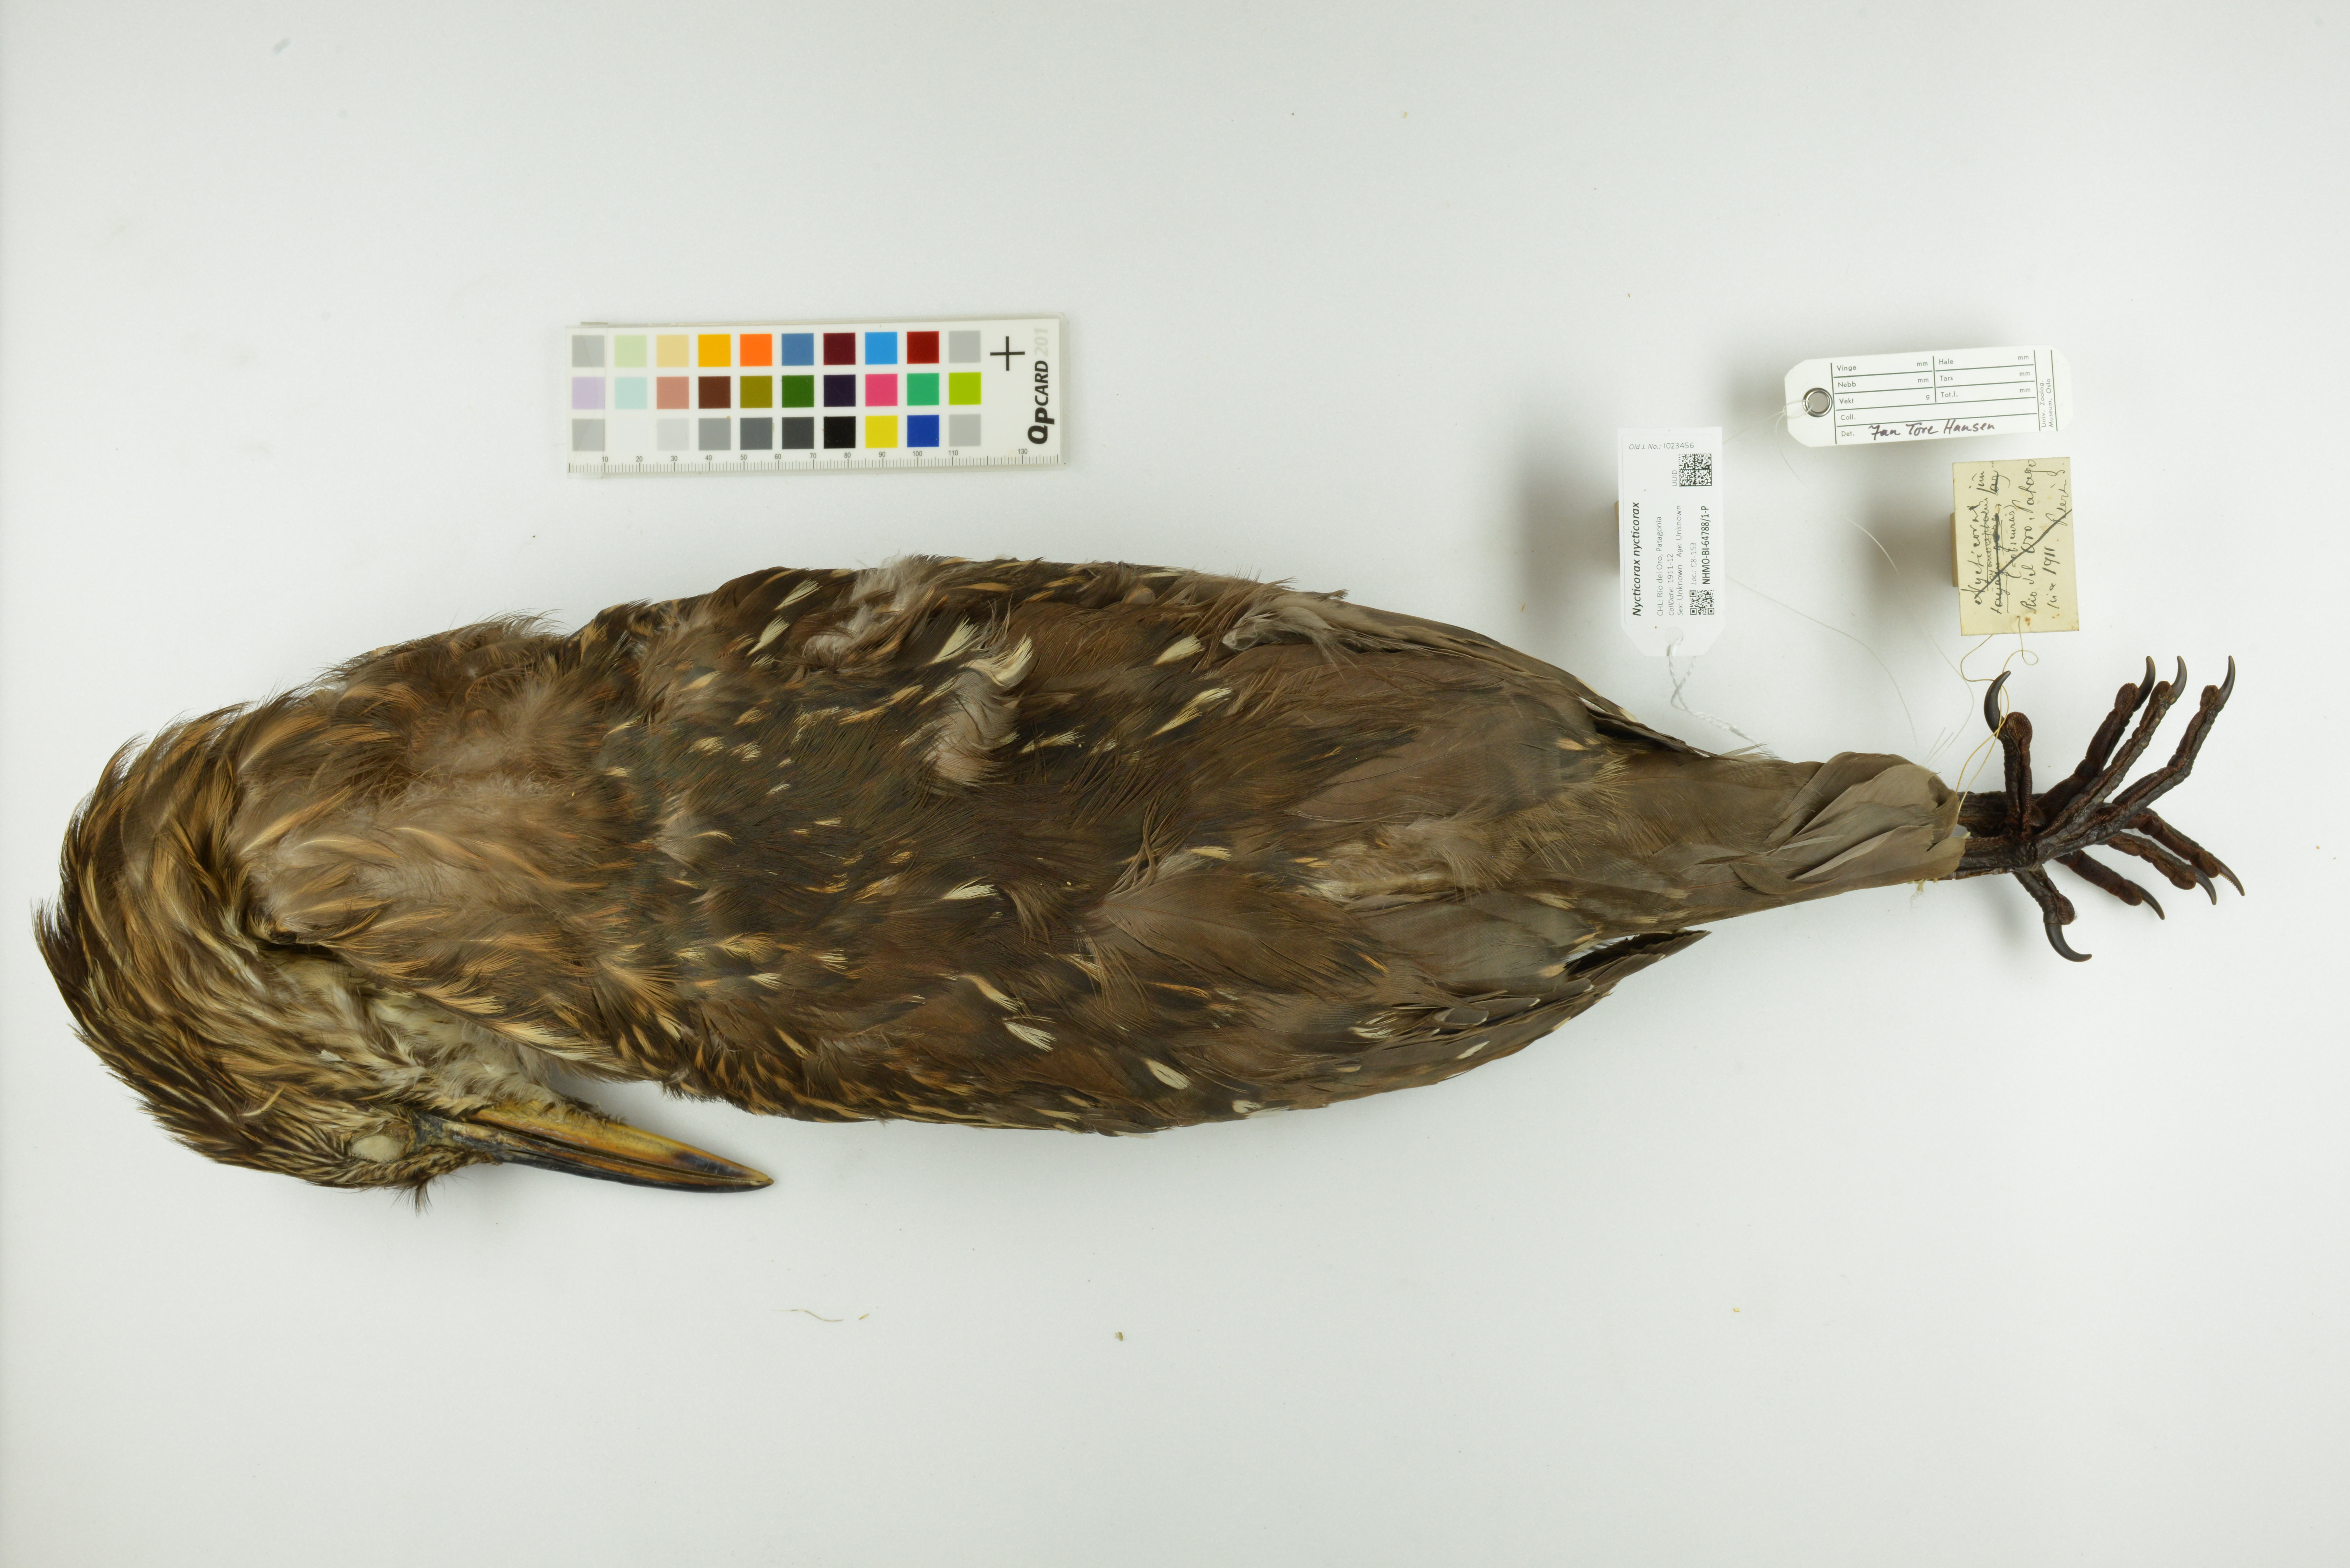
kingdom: Animalia
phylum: Chordata
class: Aves
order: Pelecaniformes
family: Ardeidae
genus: Nycticorax
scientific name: Nycticorax nycticorax
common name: Black-crowned night heron
